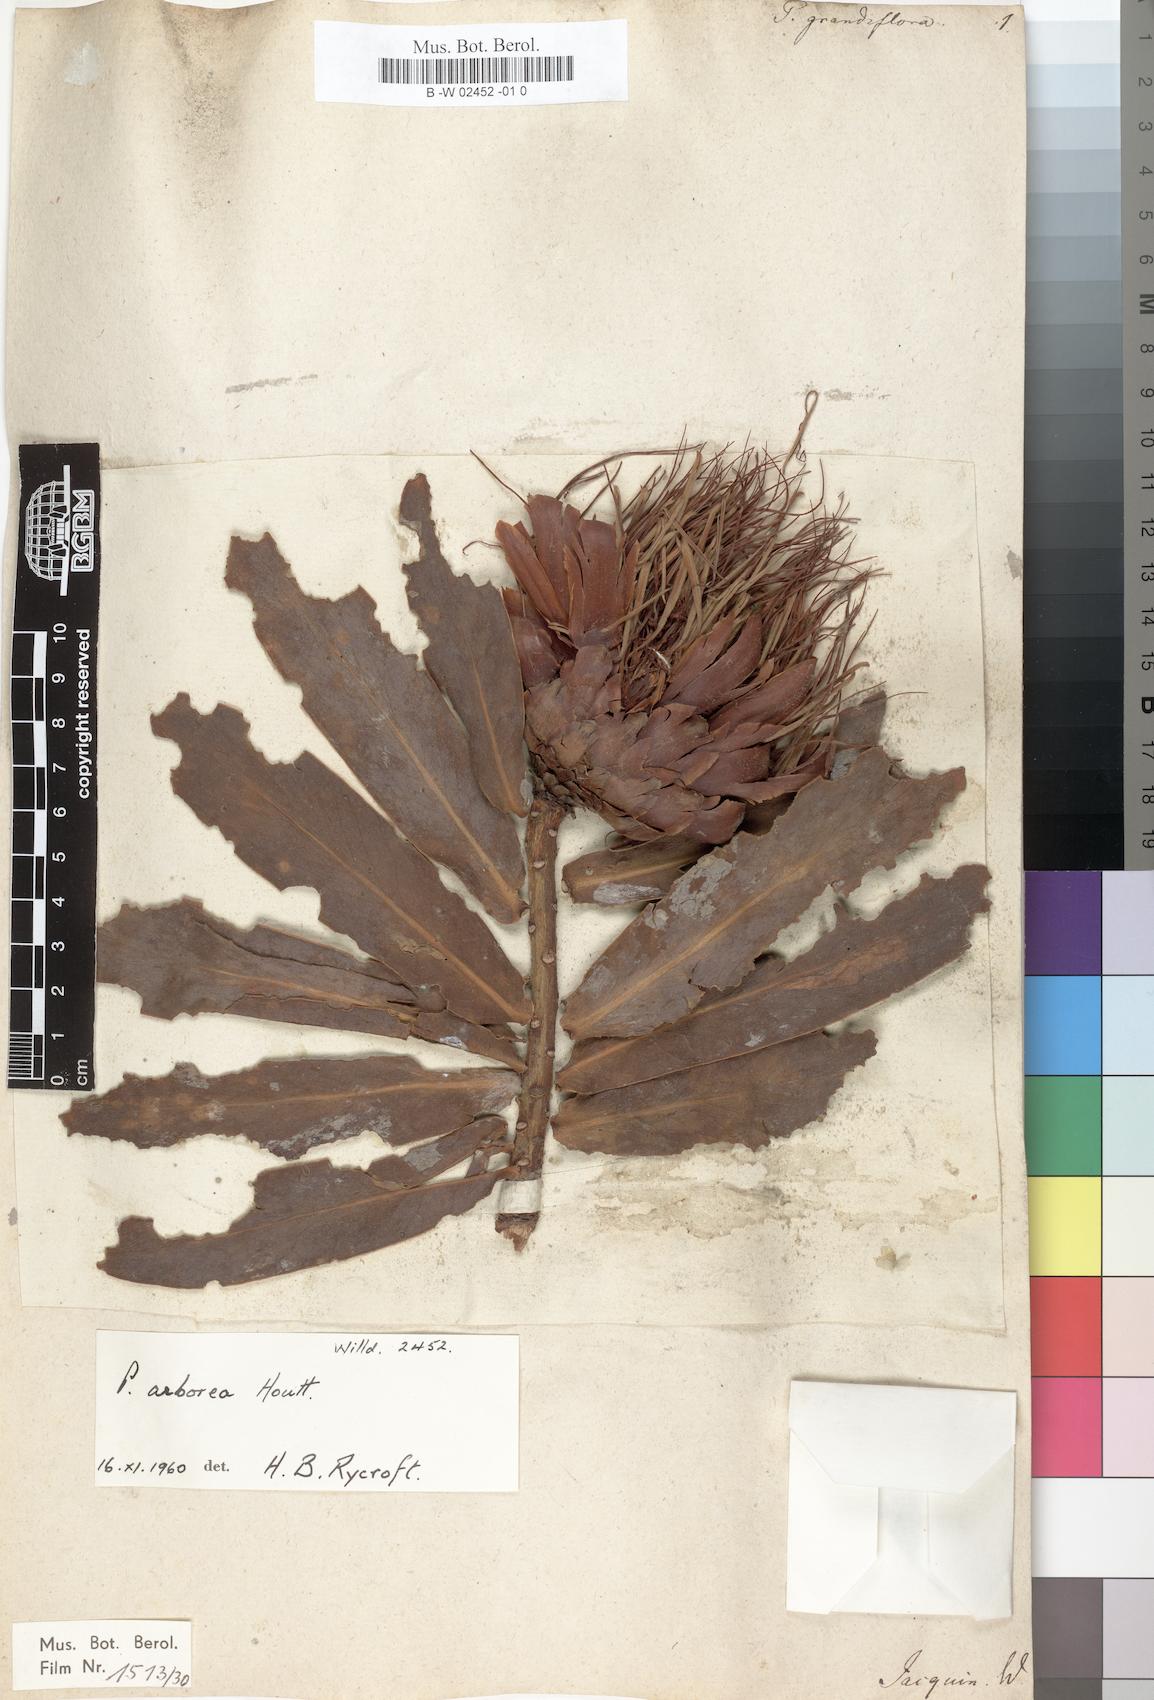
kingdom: Plantae
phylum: Tracheophyta
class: Magnoliopsida
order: Proteales
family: Proteaceae
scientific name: Proteaceae
